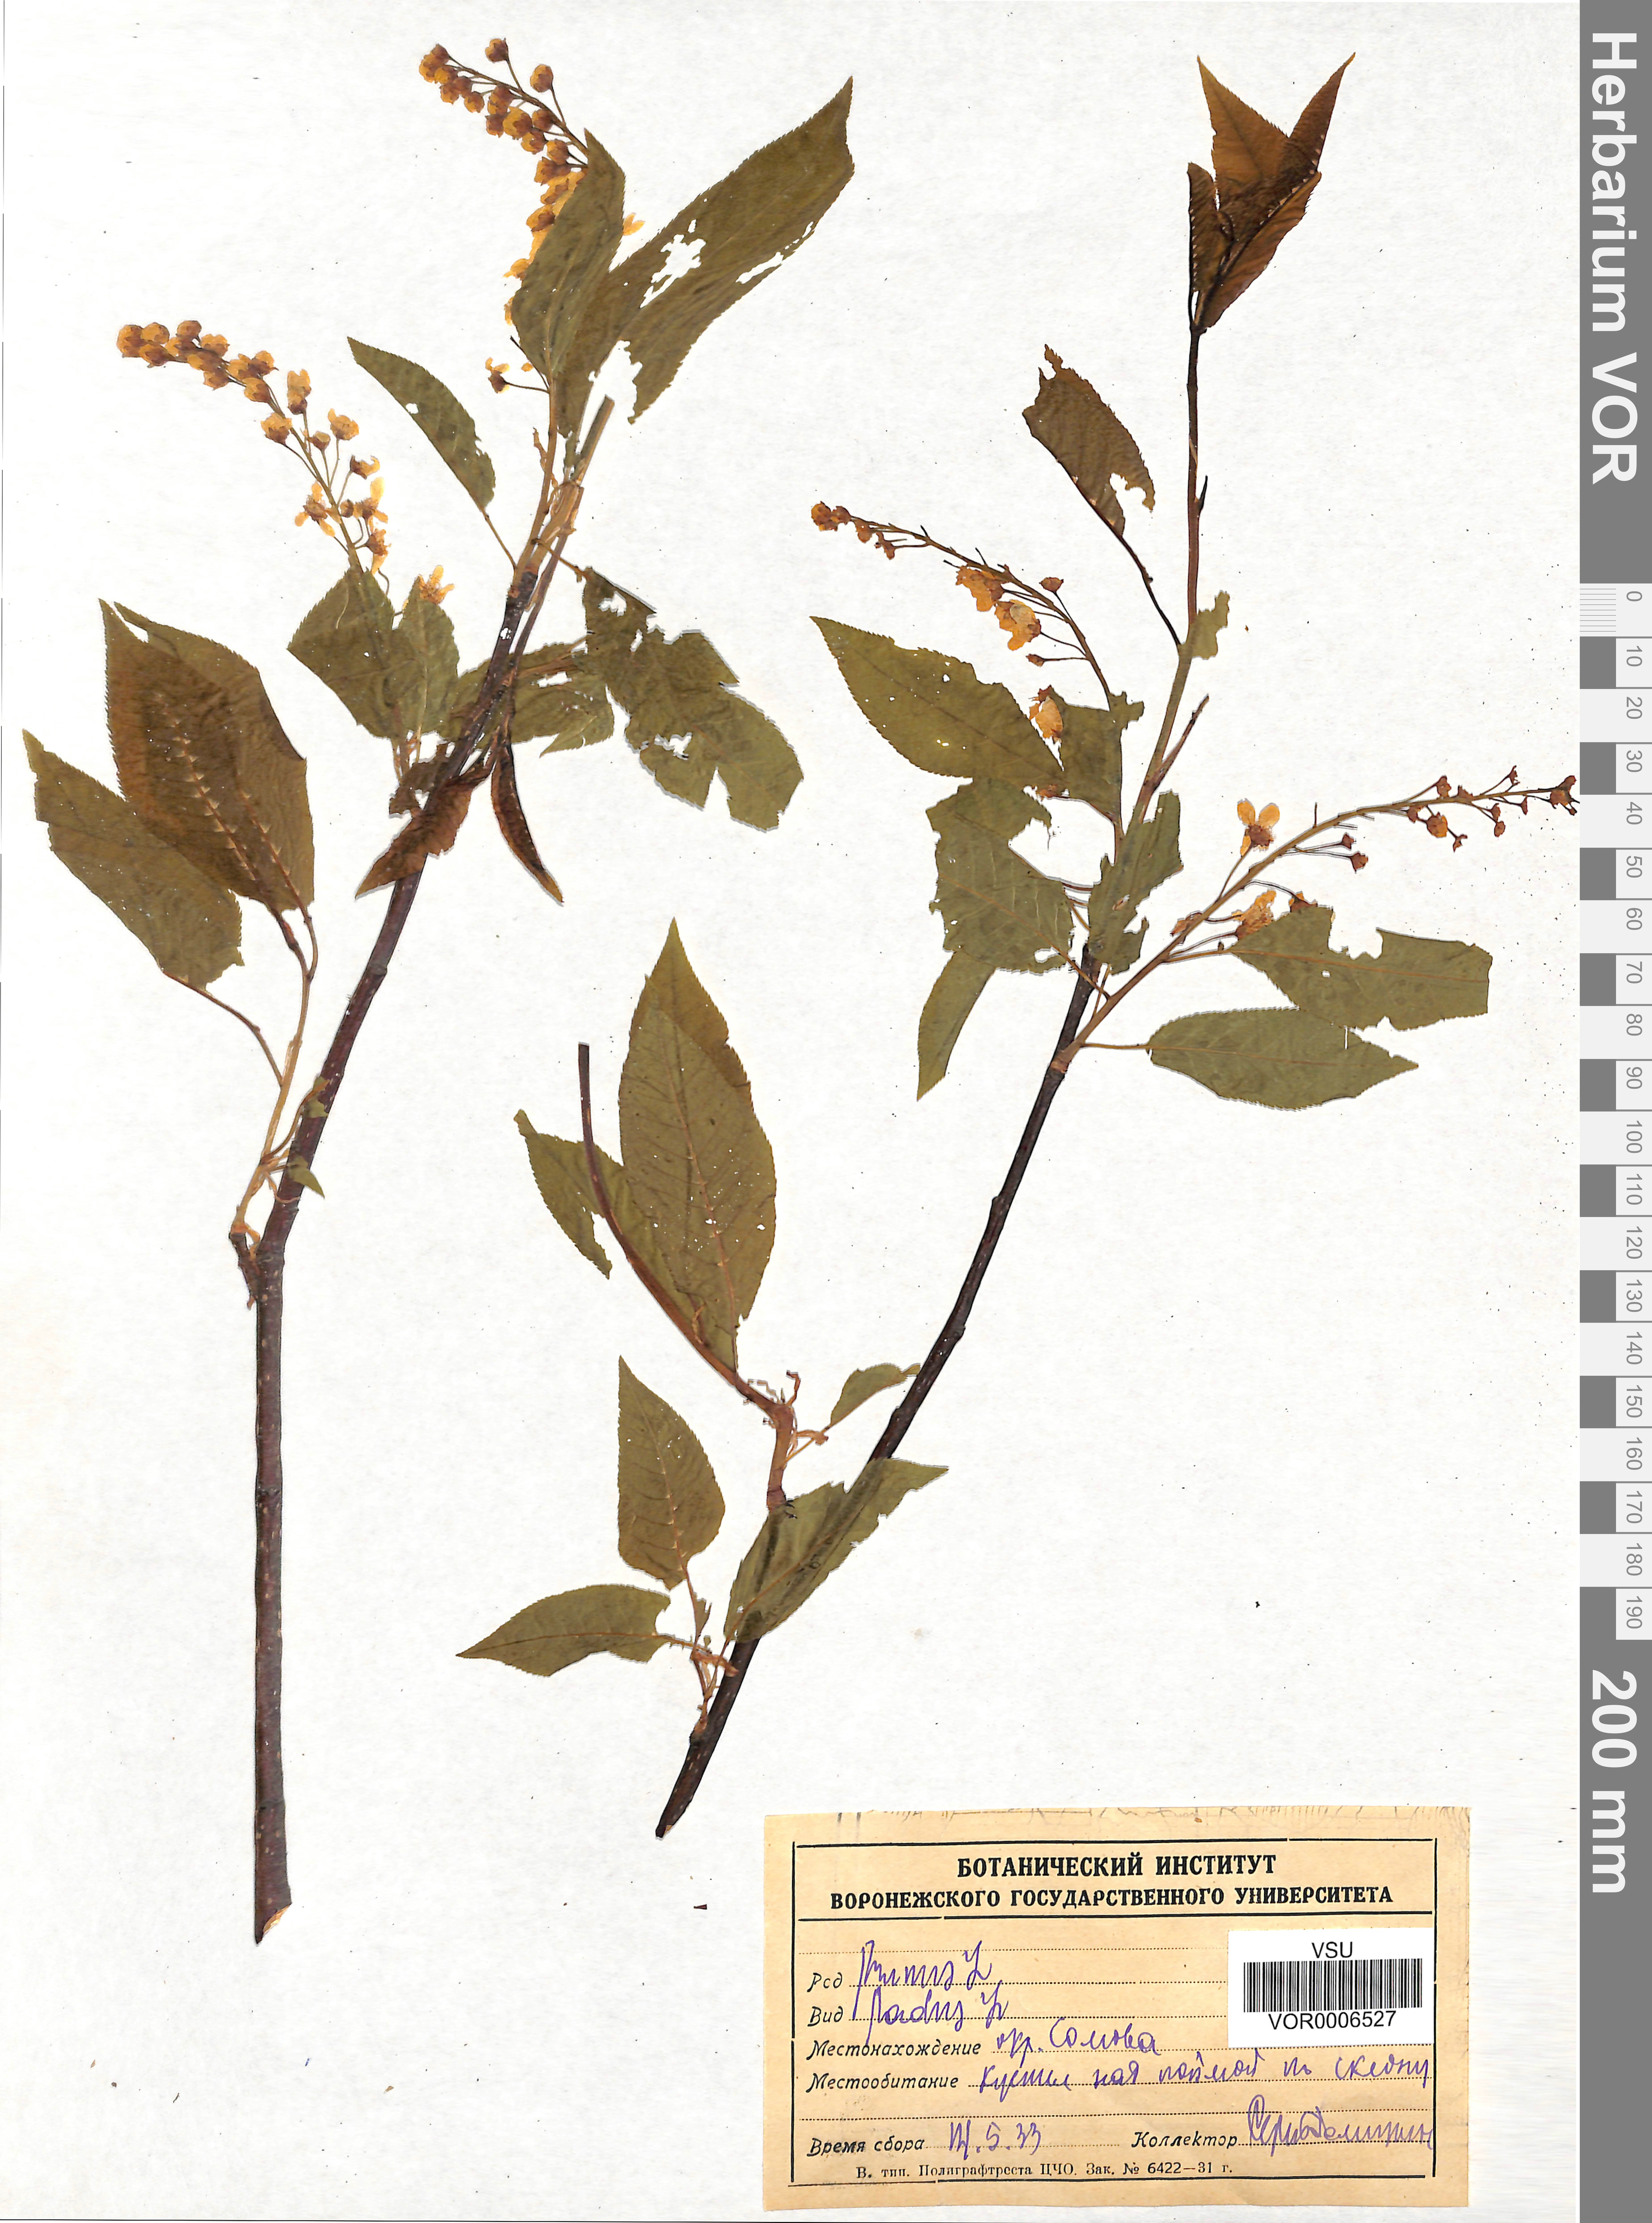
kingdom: Plantae
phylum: Tracheophyta
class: Magnoliopsida
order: Rosales
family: Rosaceae
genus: Prunus
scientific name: Prunus padus
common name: Bird cherry
